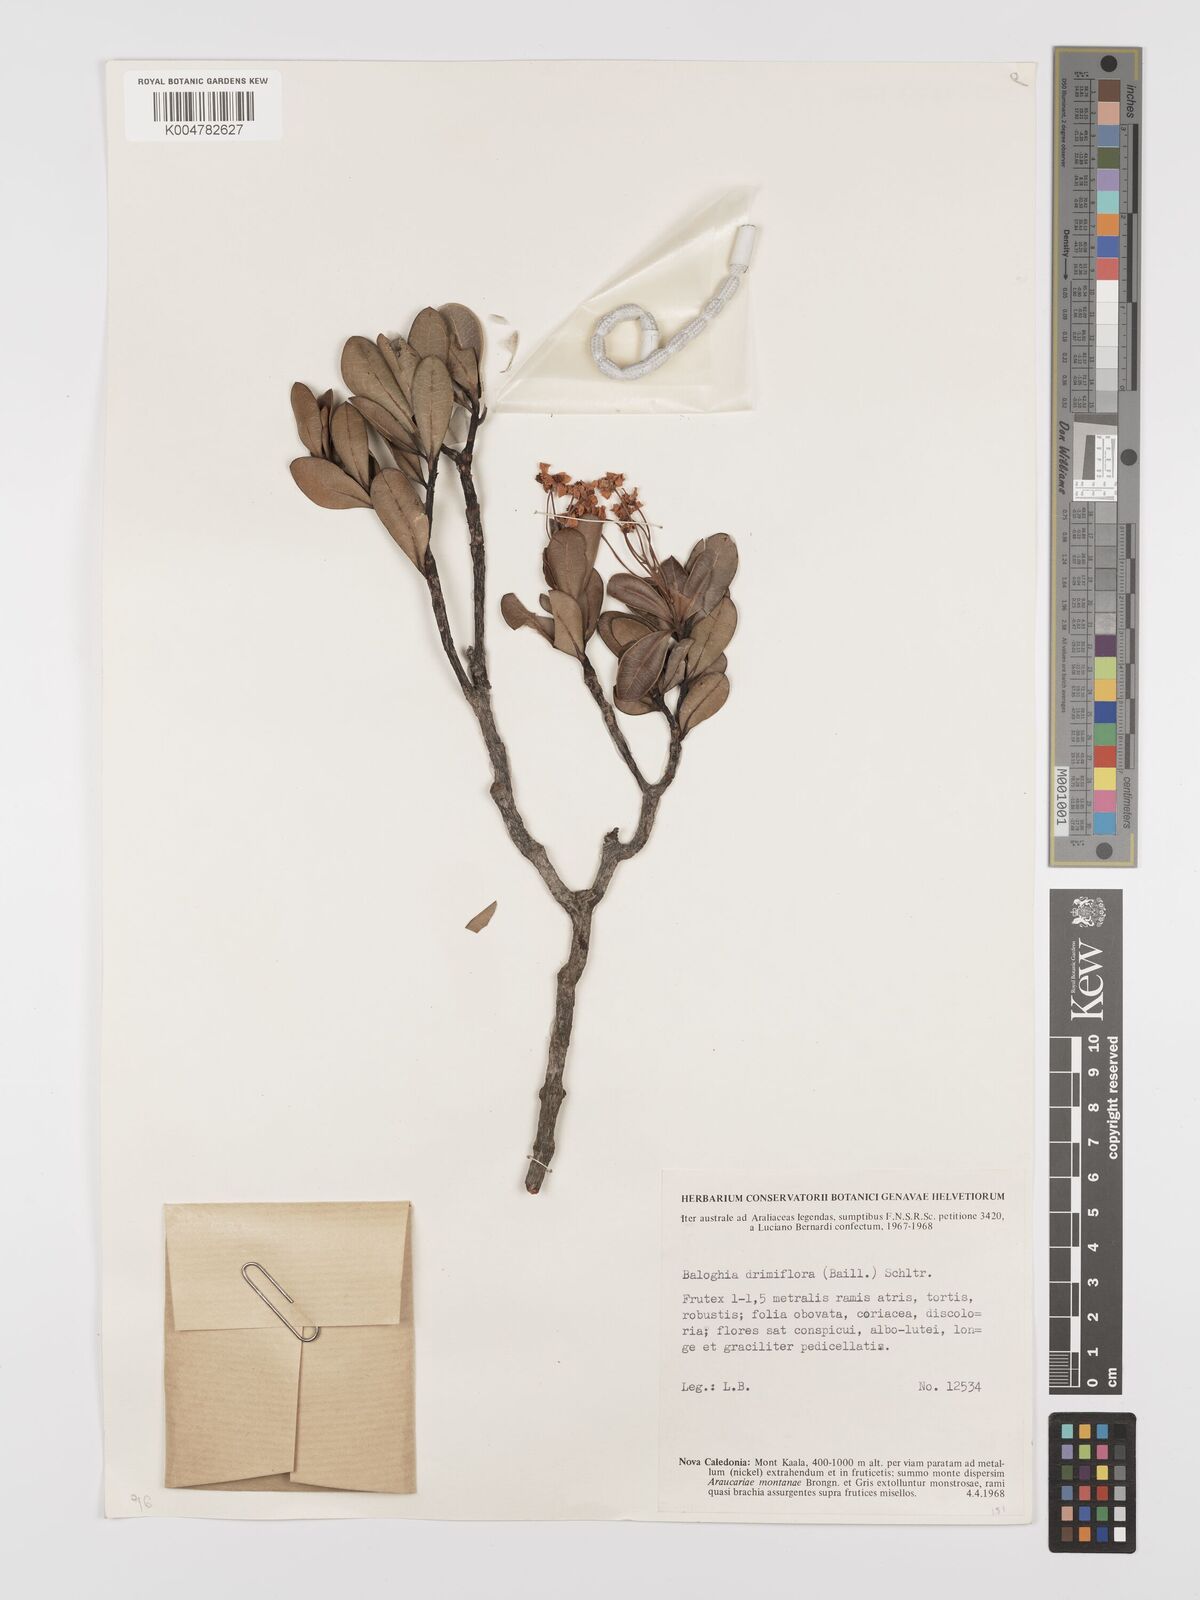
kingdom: Plantae
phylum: Tracheophyta
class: Magnoliopsida
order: Malpighiales
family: Euphorbiaceae
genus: Baloghia
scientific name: Baloghia drimiflora
